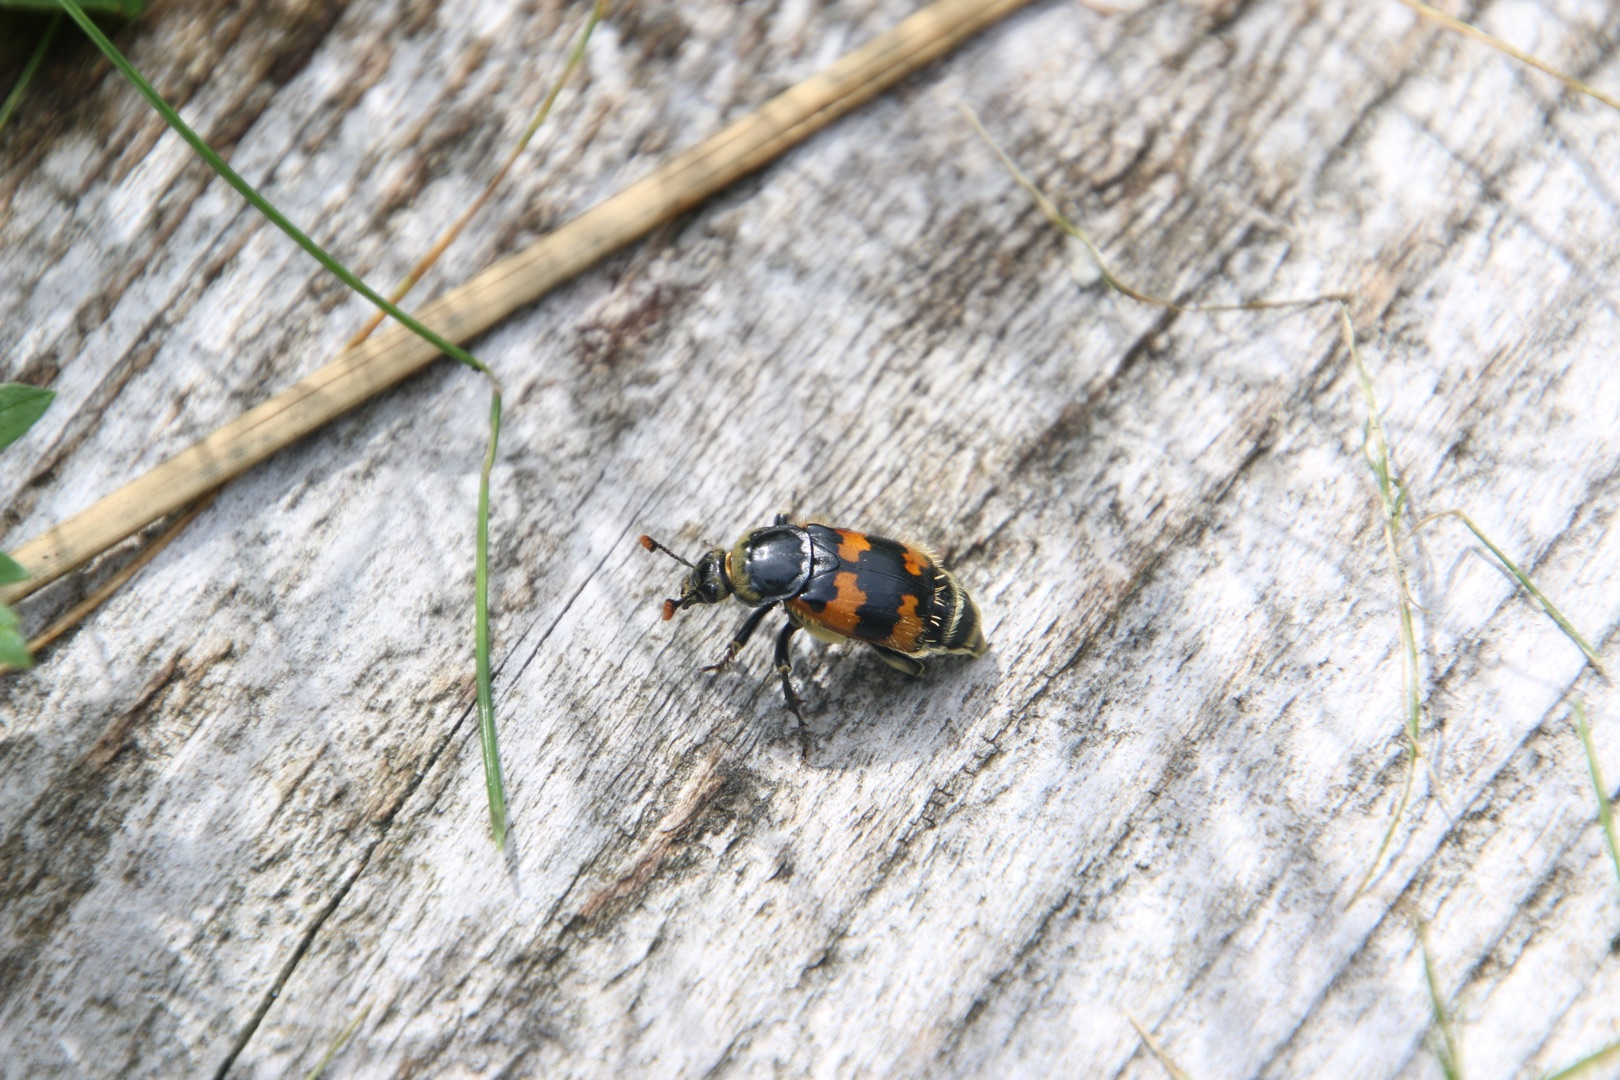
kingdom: Animalia
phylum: Arthropoda
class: Insecta
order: Coleoptera
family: Staphylinidae
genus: Nicrophorus
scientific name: Nicrophorus vespillo
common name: Krumbenet ådselgraver
